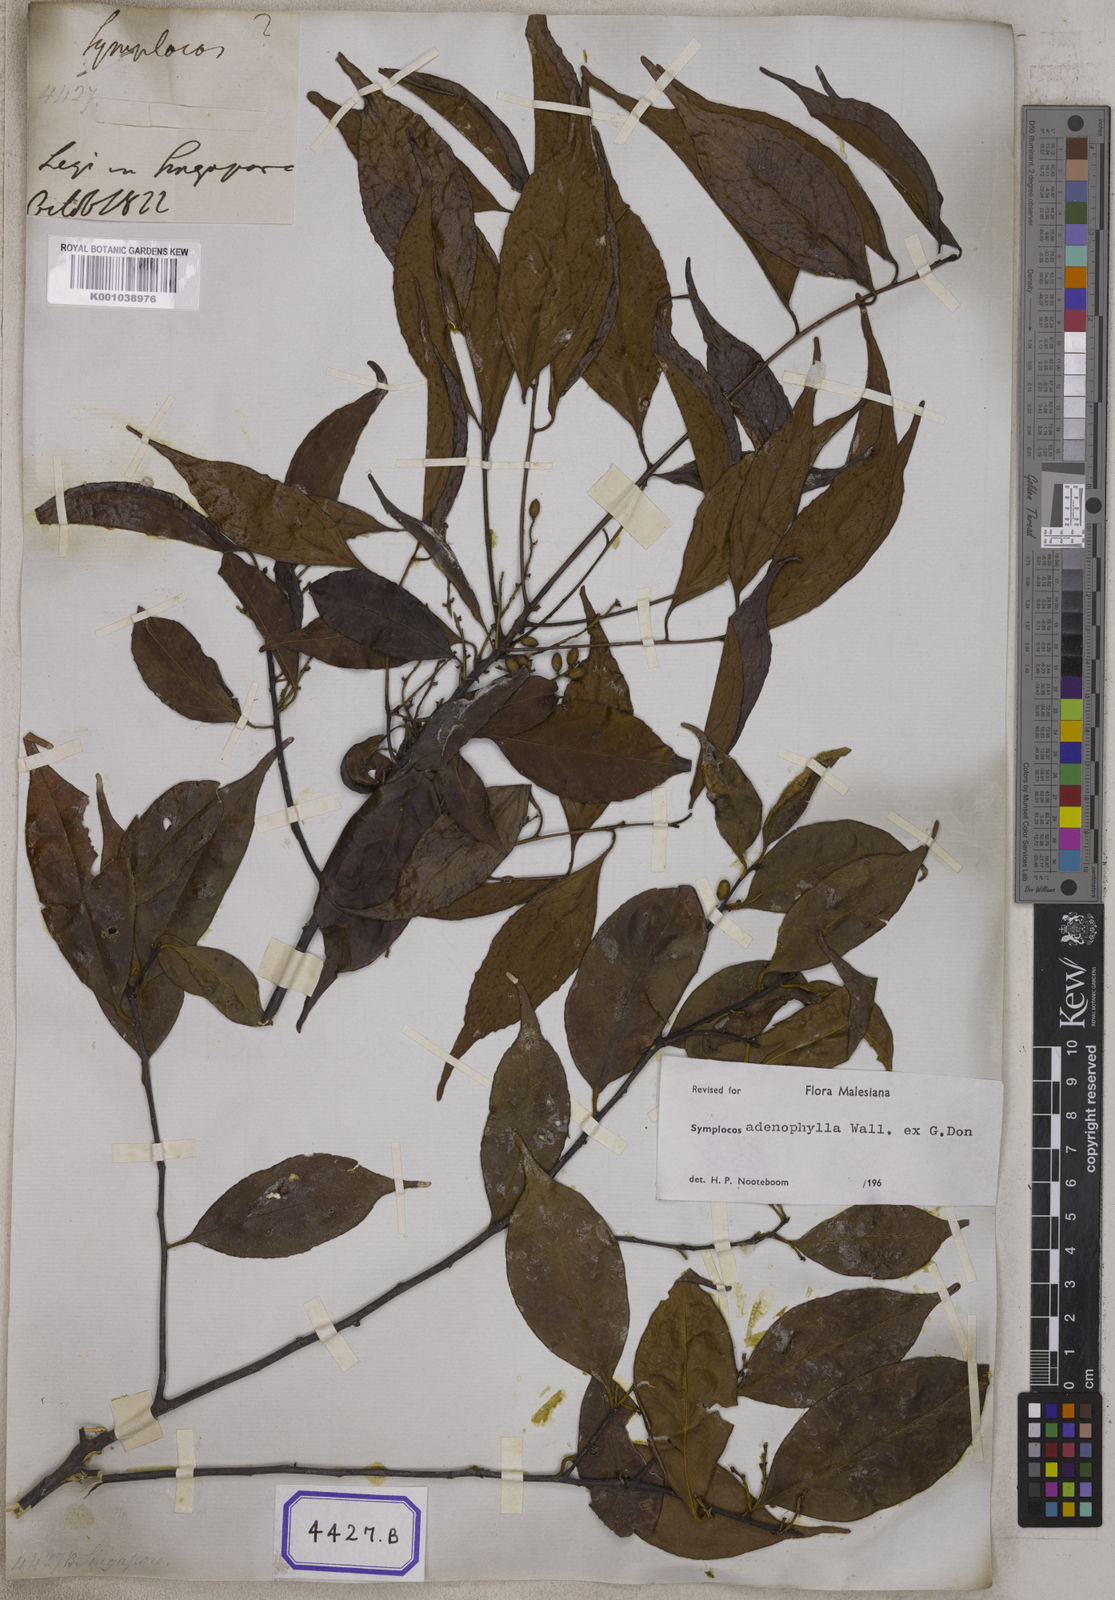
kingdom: Plantae
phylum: Tracheophyta
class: Magnoliopsida
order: Ericales
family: Symplocaceae
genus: Symplocos
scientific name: Symplocos
